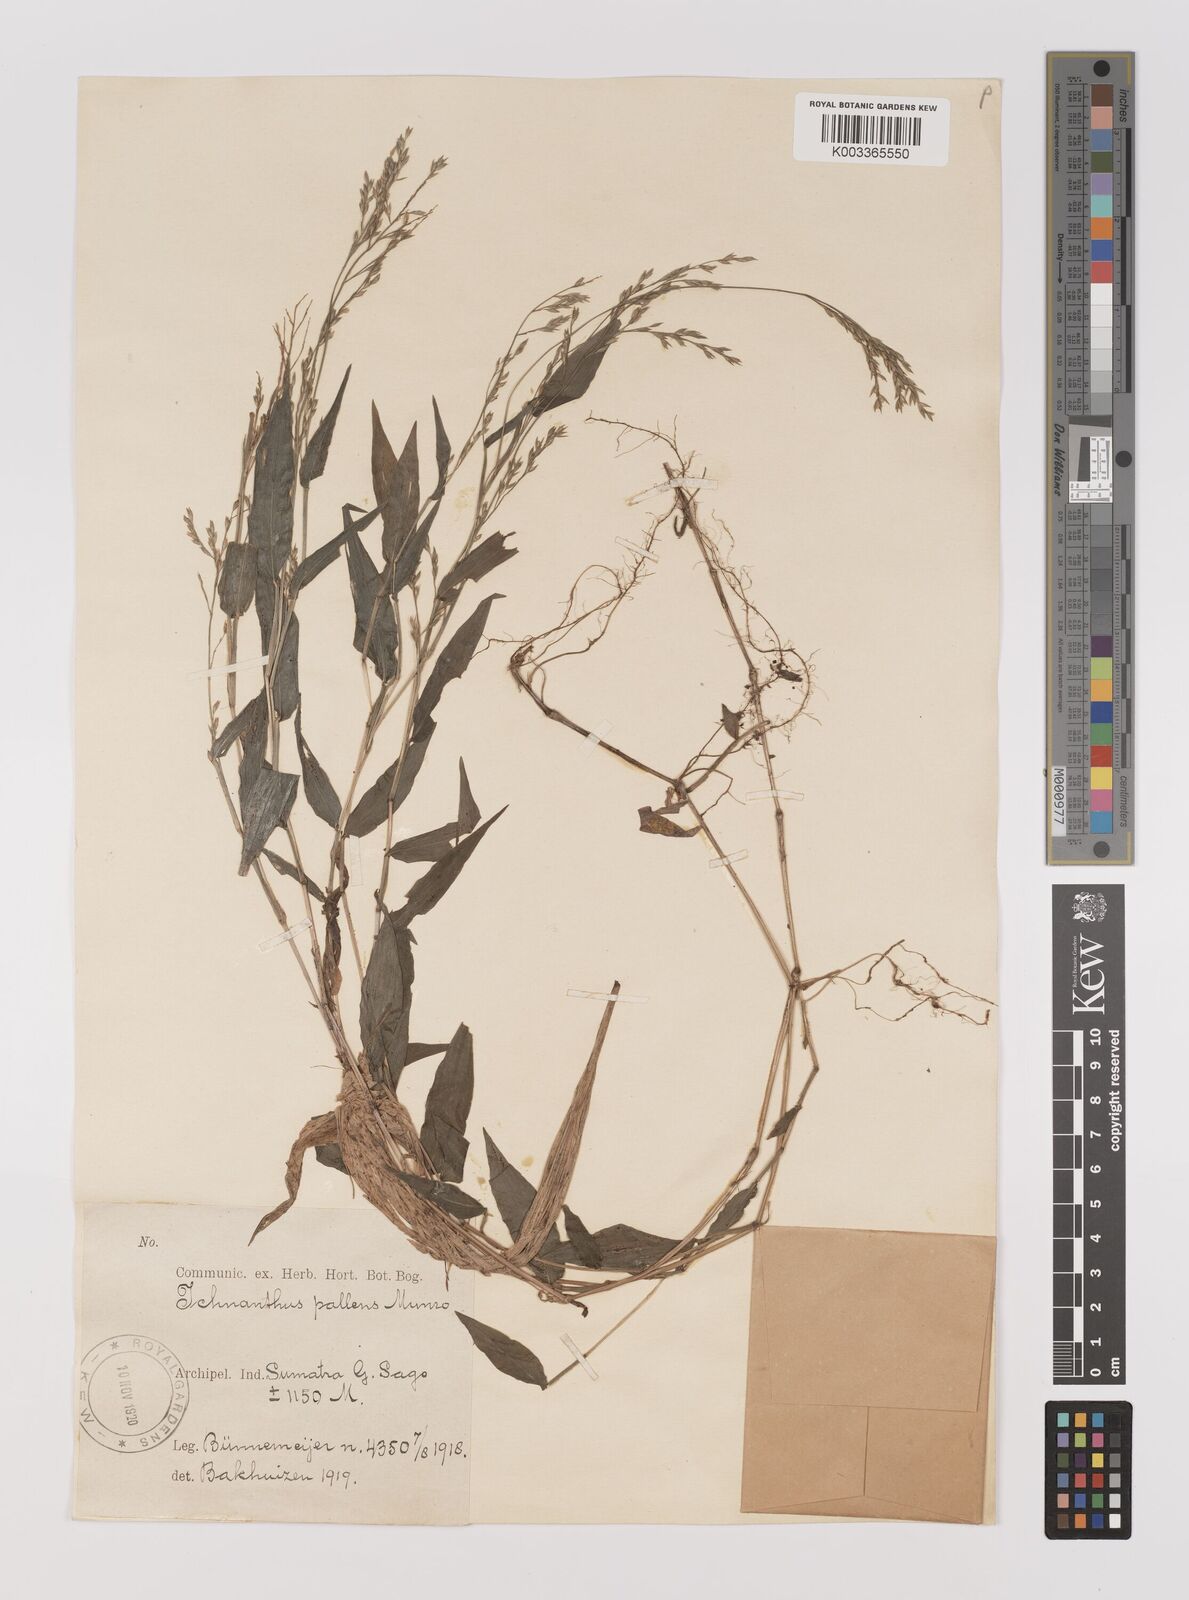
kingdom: Plantae
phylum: Tracheophyta
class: Liliopsida
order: Poales
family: Poaceae
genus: Ichnanthus
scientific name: Ichnanthus pallens
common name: Water grass
